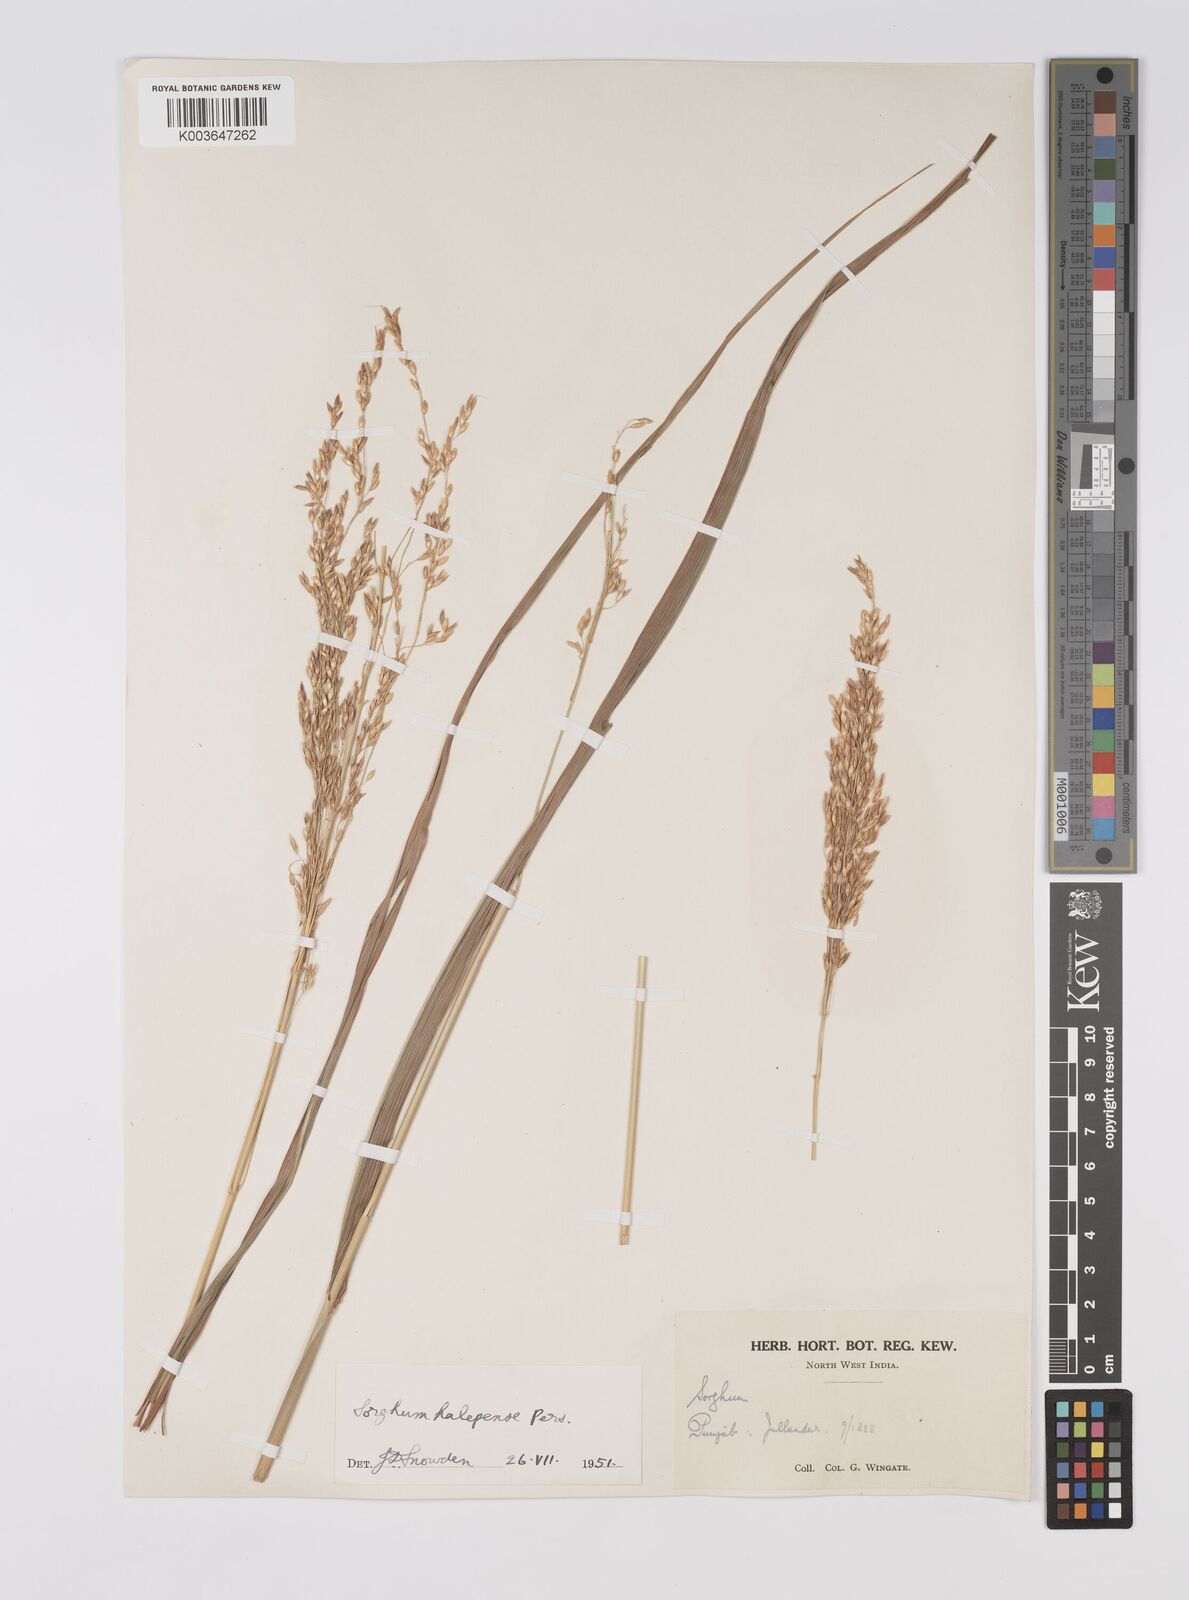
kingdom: Plantae
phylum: Tracheophyta
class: Liliopsida
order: Poales
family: Poaceae
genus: Sorghum
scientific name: Sorghum halepense
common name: Johnson-grass
